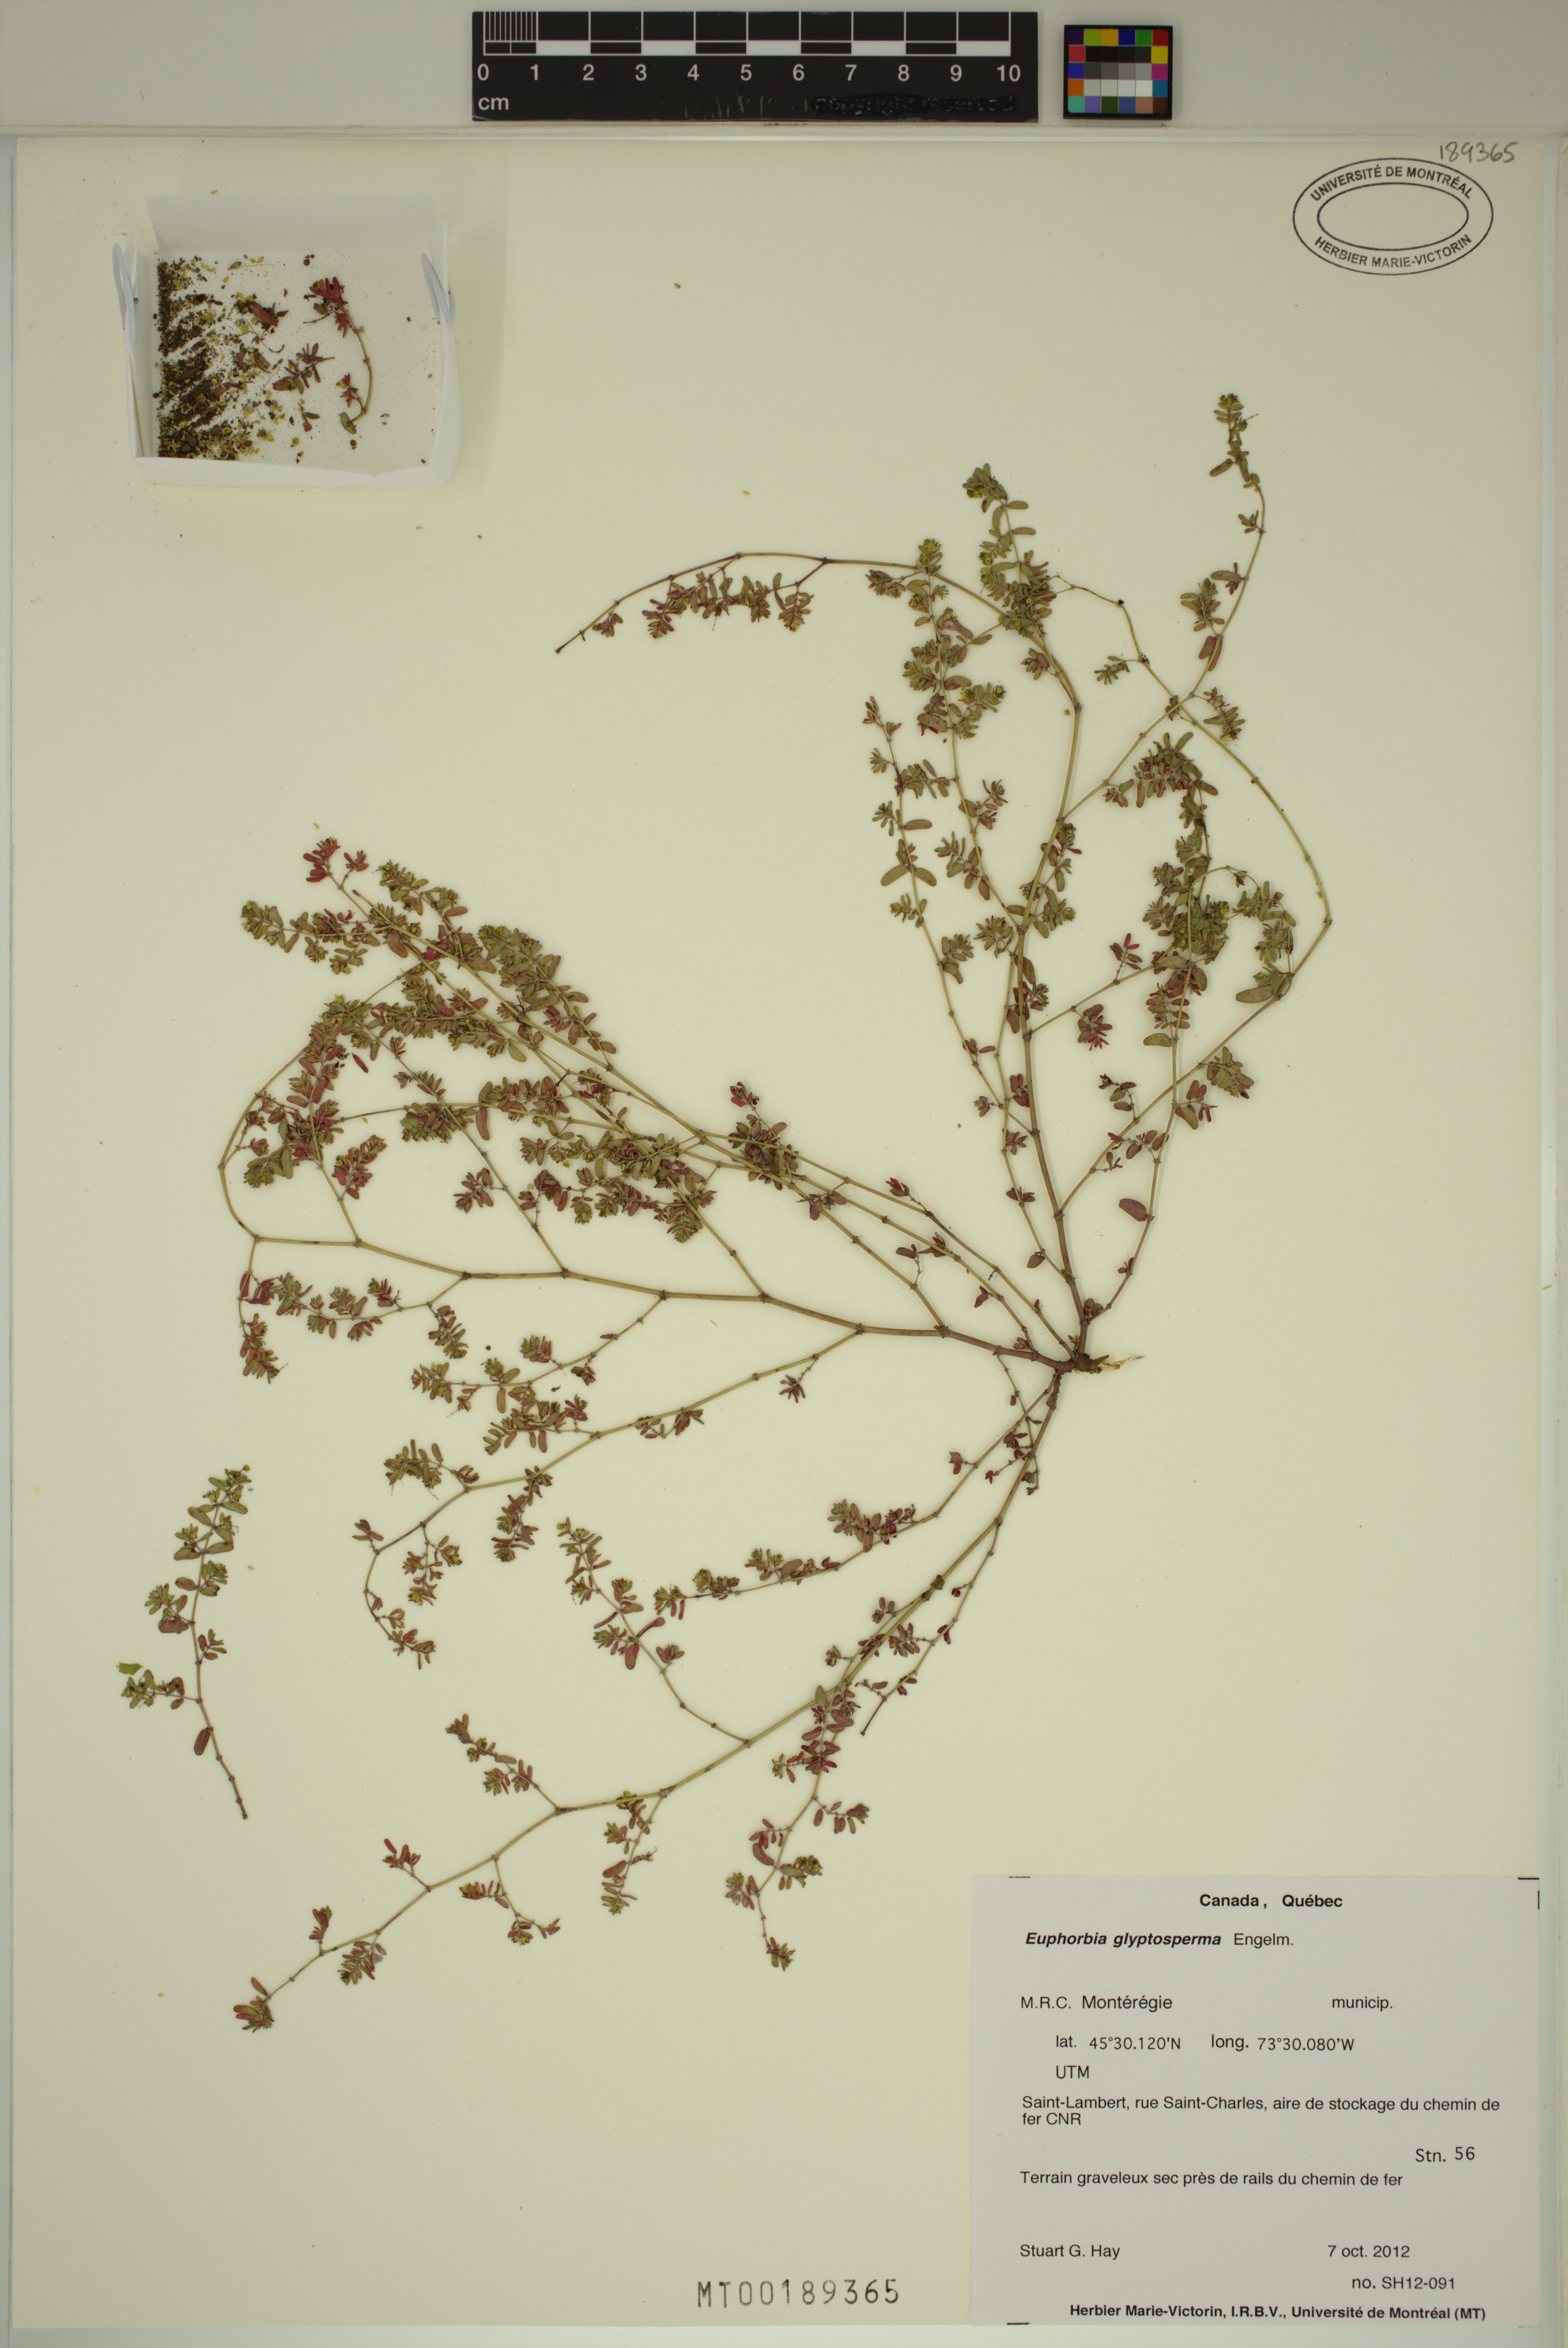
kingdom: Plantae
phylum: Tracheophyta
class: Magnoliopsida
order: Malpighiales
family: Euphorbiaceae
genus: Euphorbia
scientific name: Euphorbia glyptosperma
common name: Corrugate-seeded spurge
